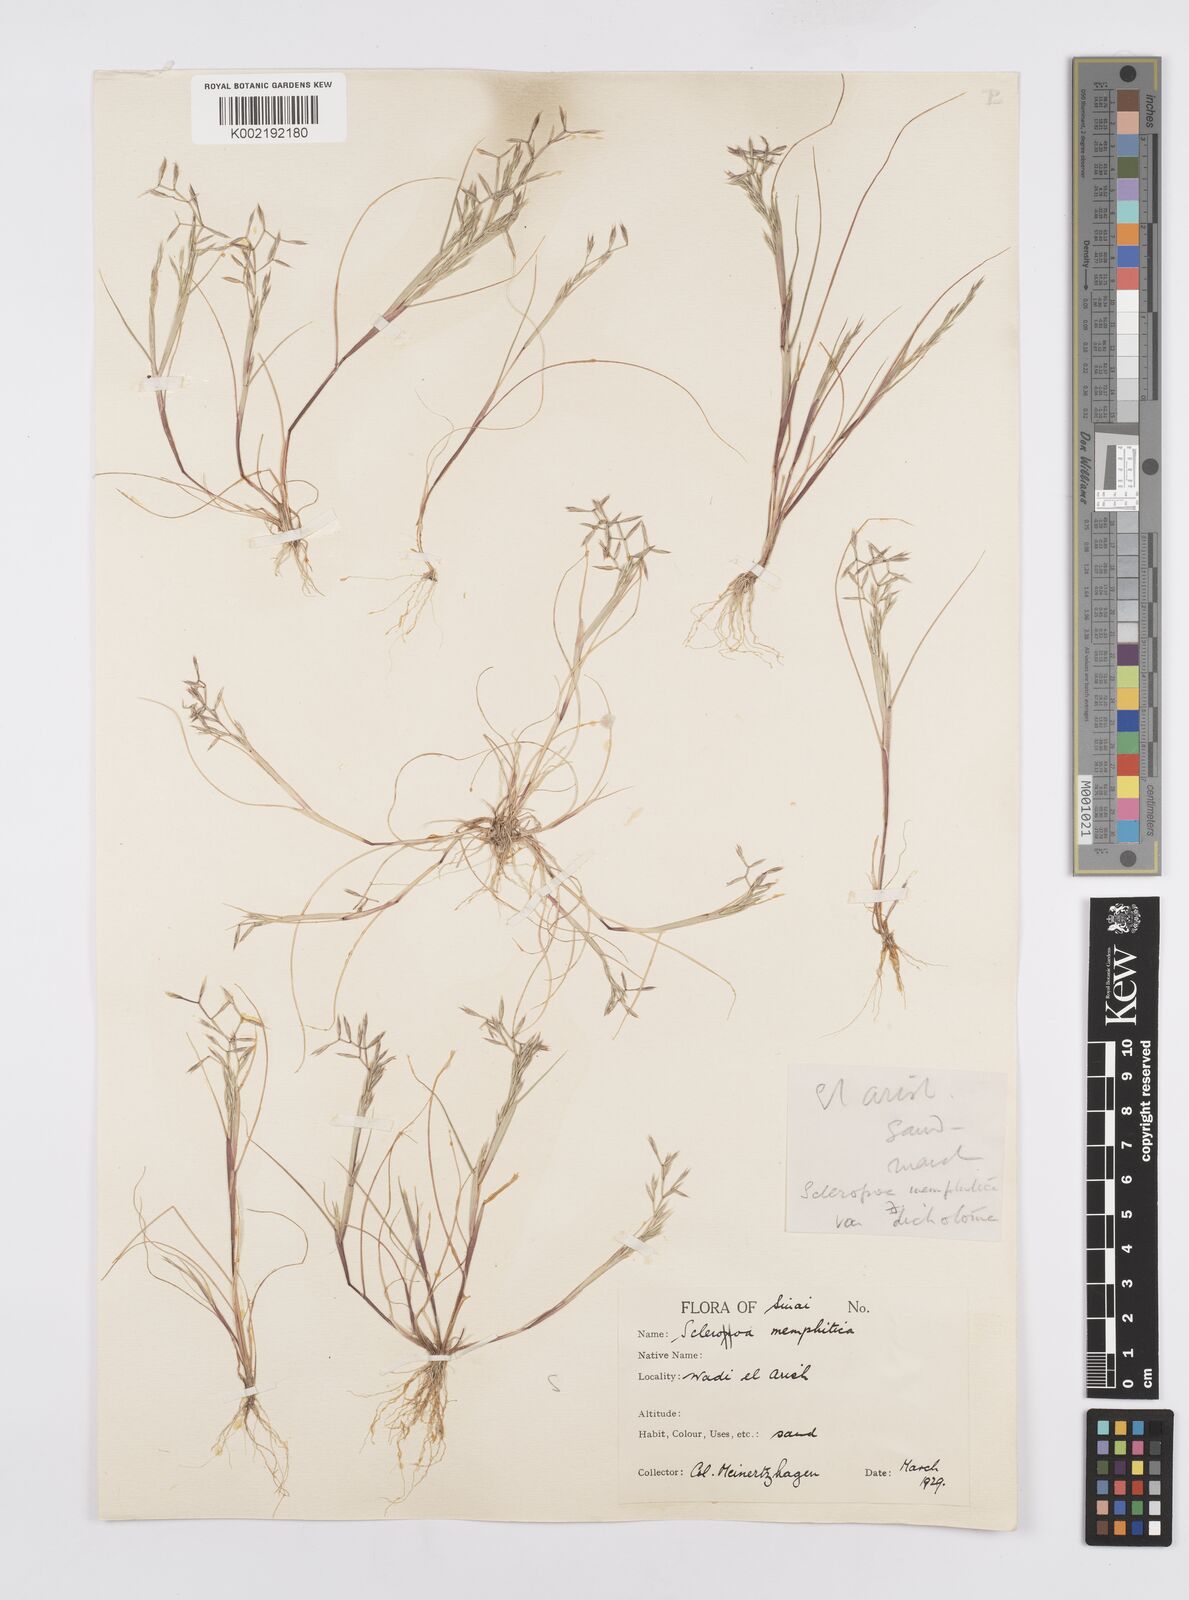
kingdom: Plantae
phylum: Tracheophyta
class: Liliopsida
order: Poales
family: Poaceae
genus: Cutandia
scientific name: Cutandia dichotoma
